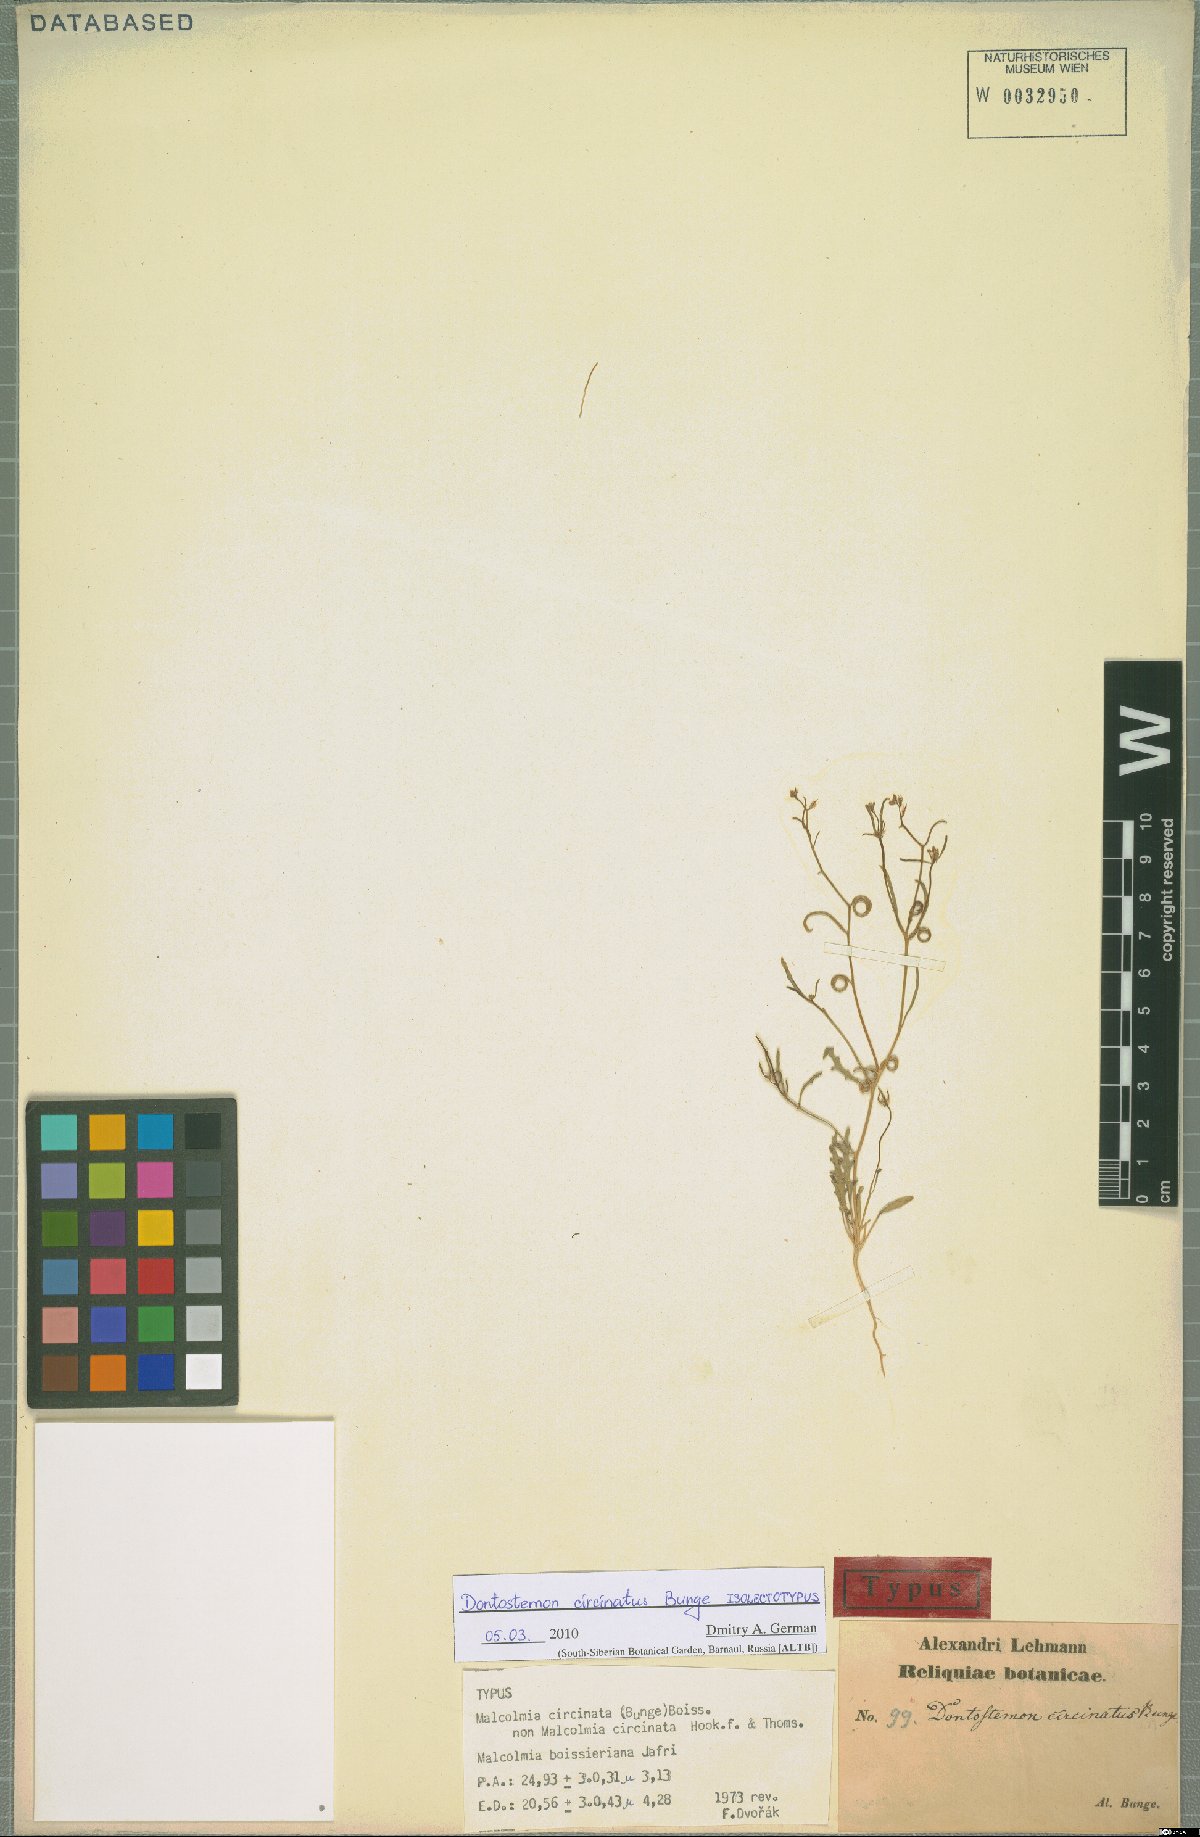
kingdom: Plantae
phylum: Tracheophyta
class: Magnoliopsida
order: Brassicales
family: Brassicaceae
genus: Strigosella
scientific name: Strigosella circinata
